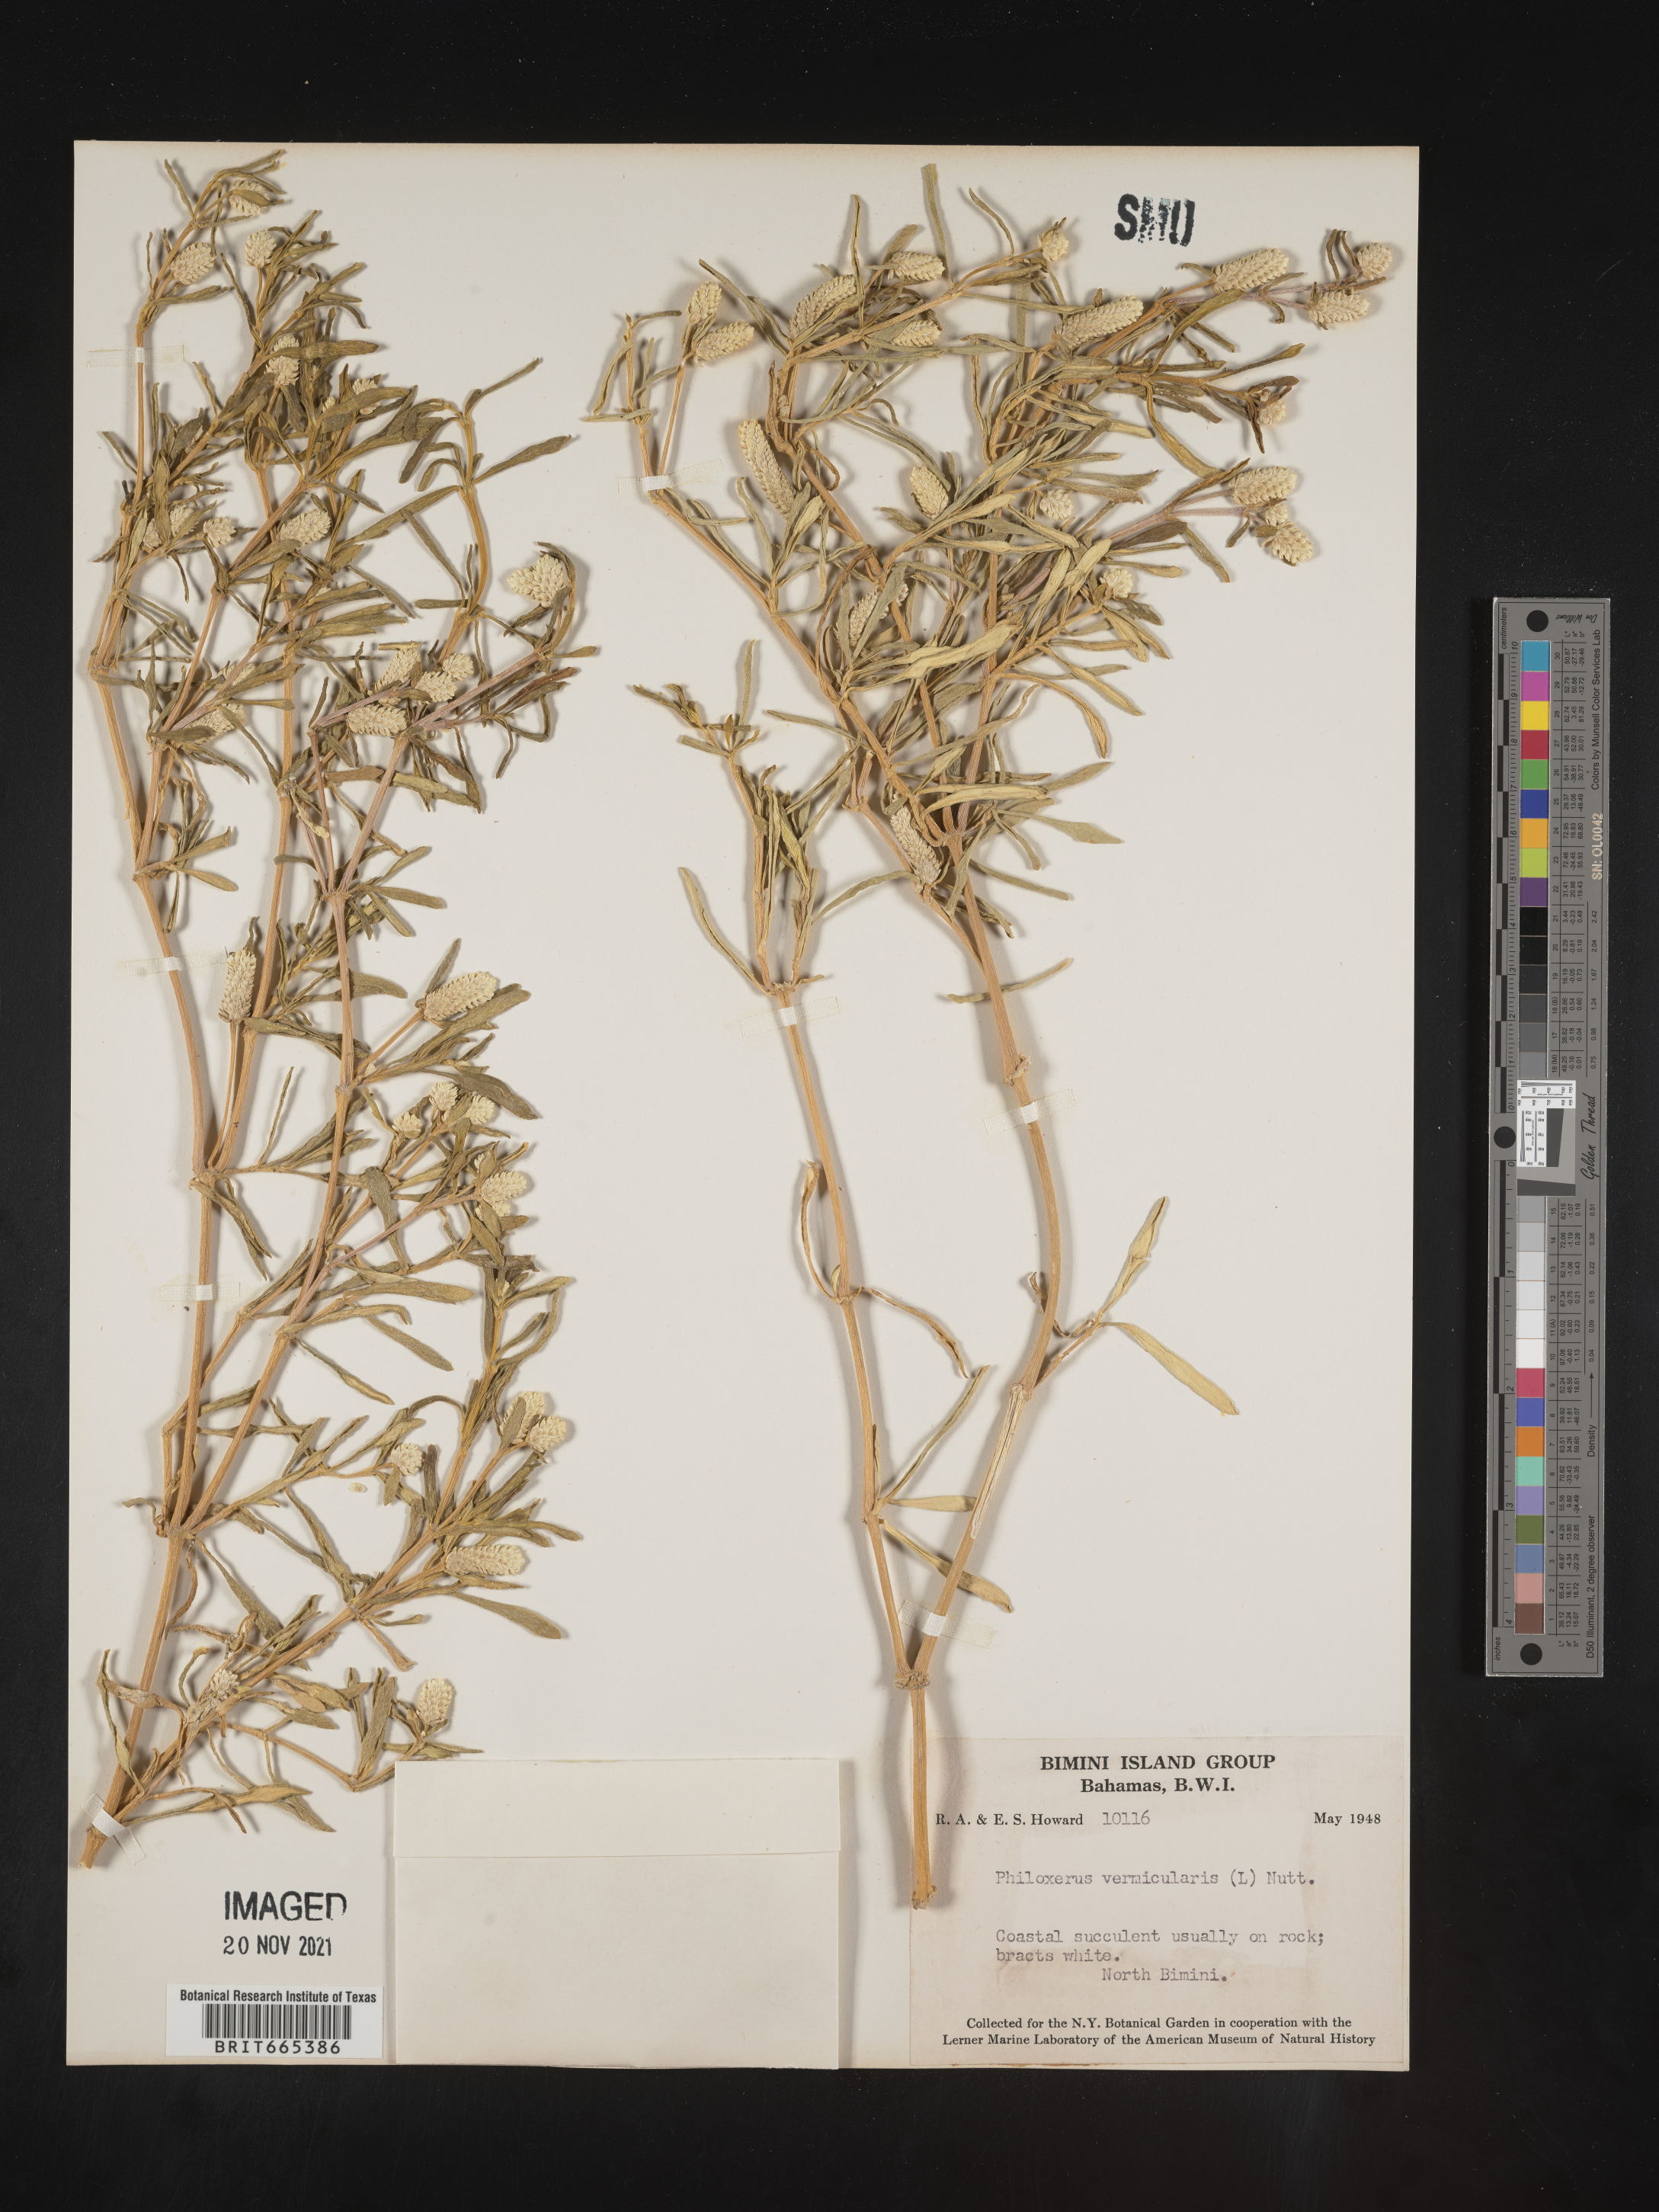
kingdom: Plantae
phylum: Tracheophyta
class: Magnoliopsida
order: Caryophyllales
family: Amaranthaceae
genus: Gomphrena
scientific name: Gomphrena
